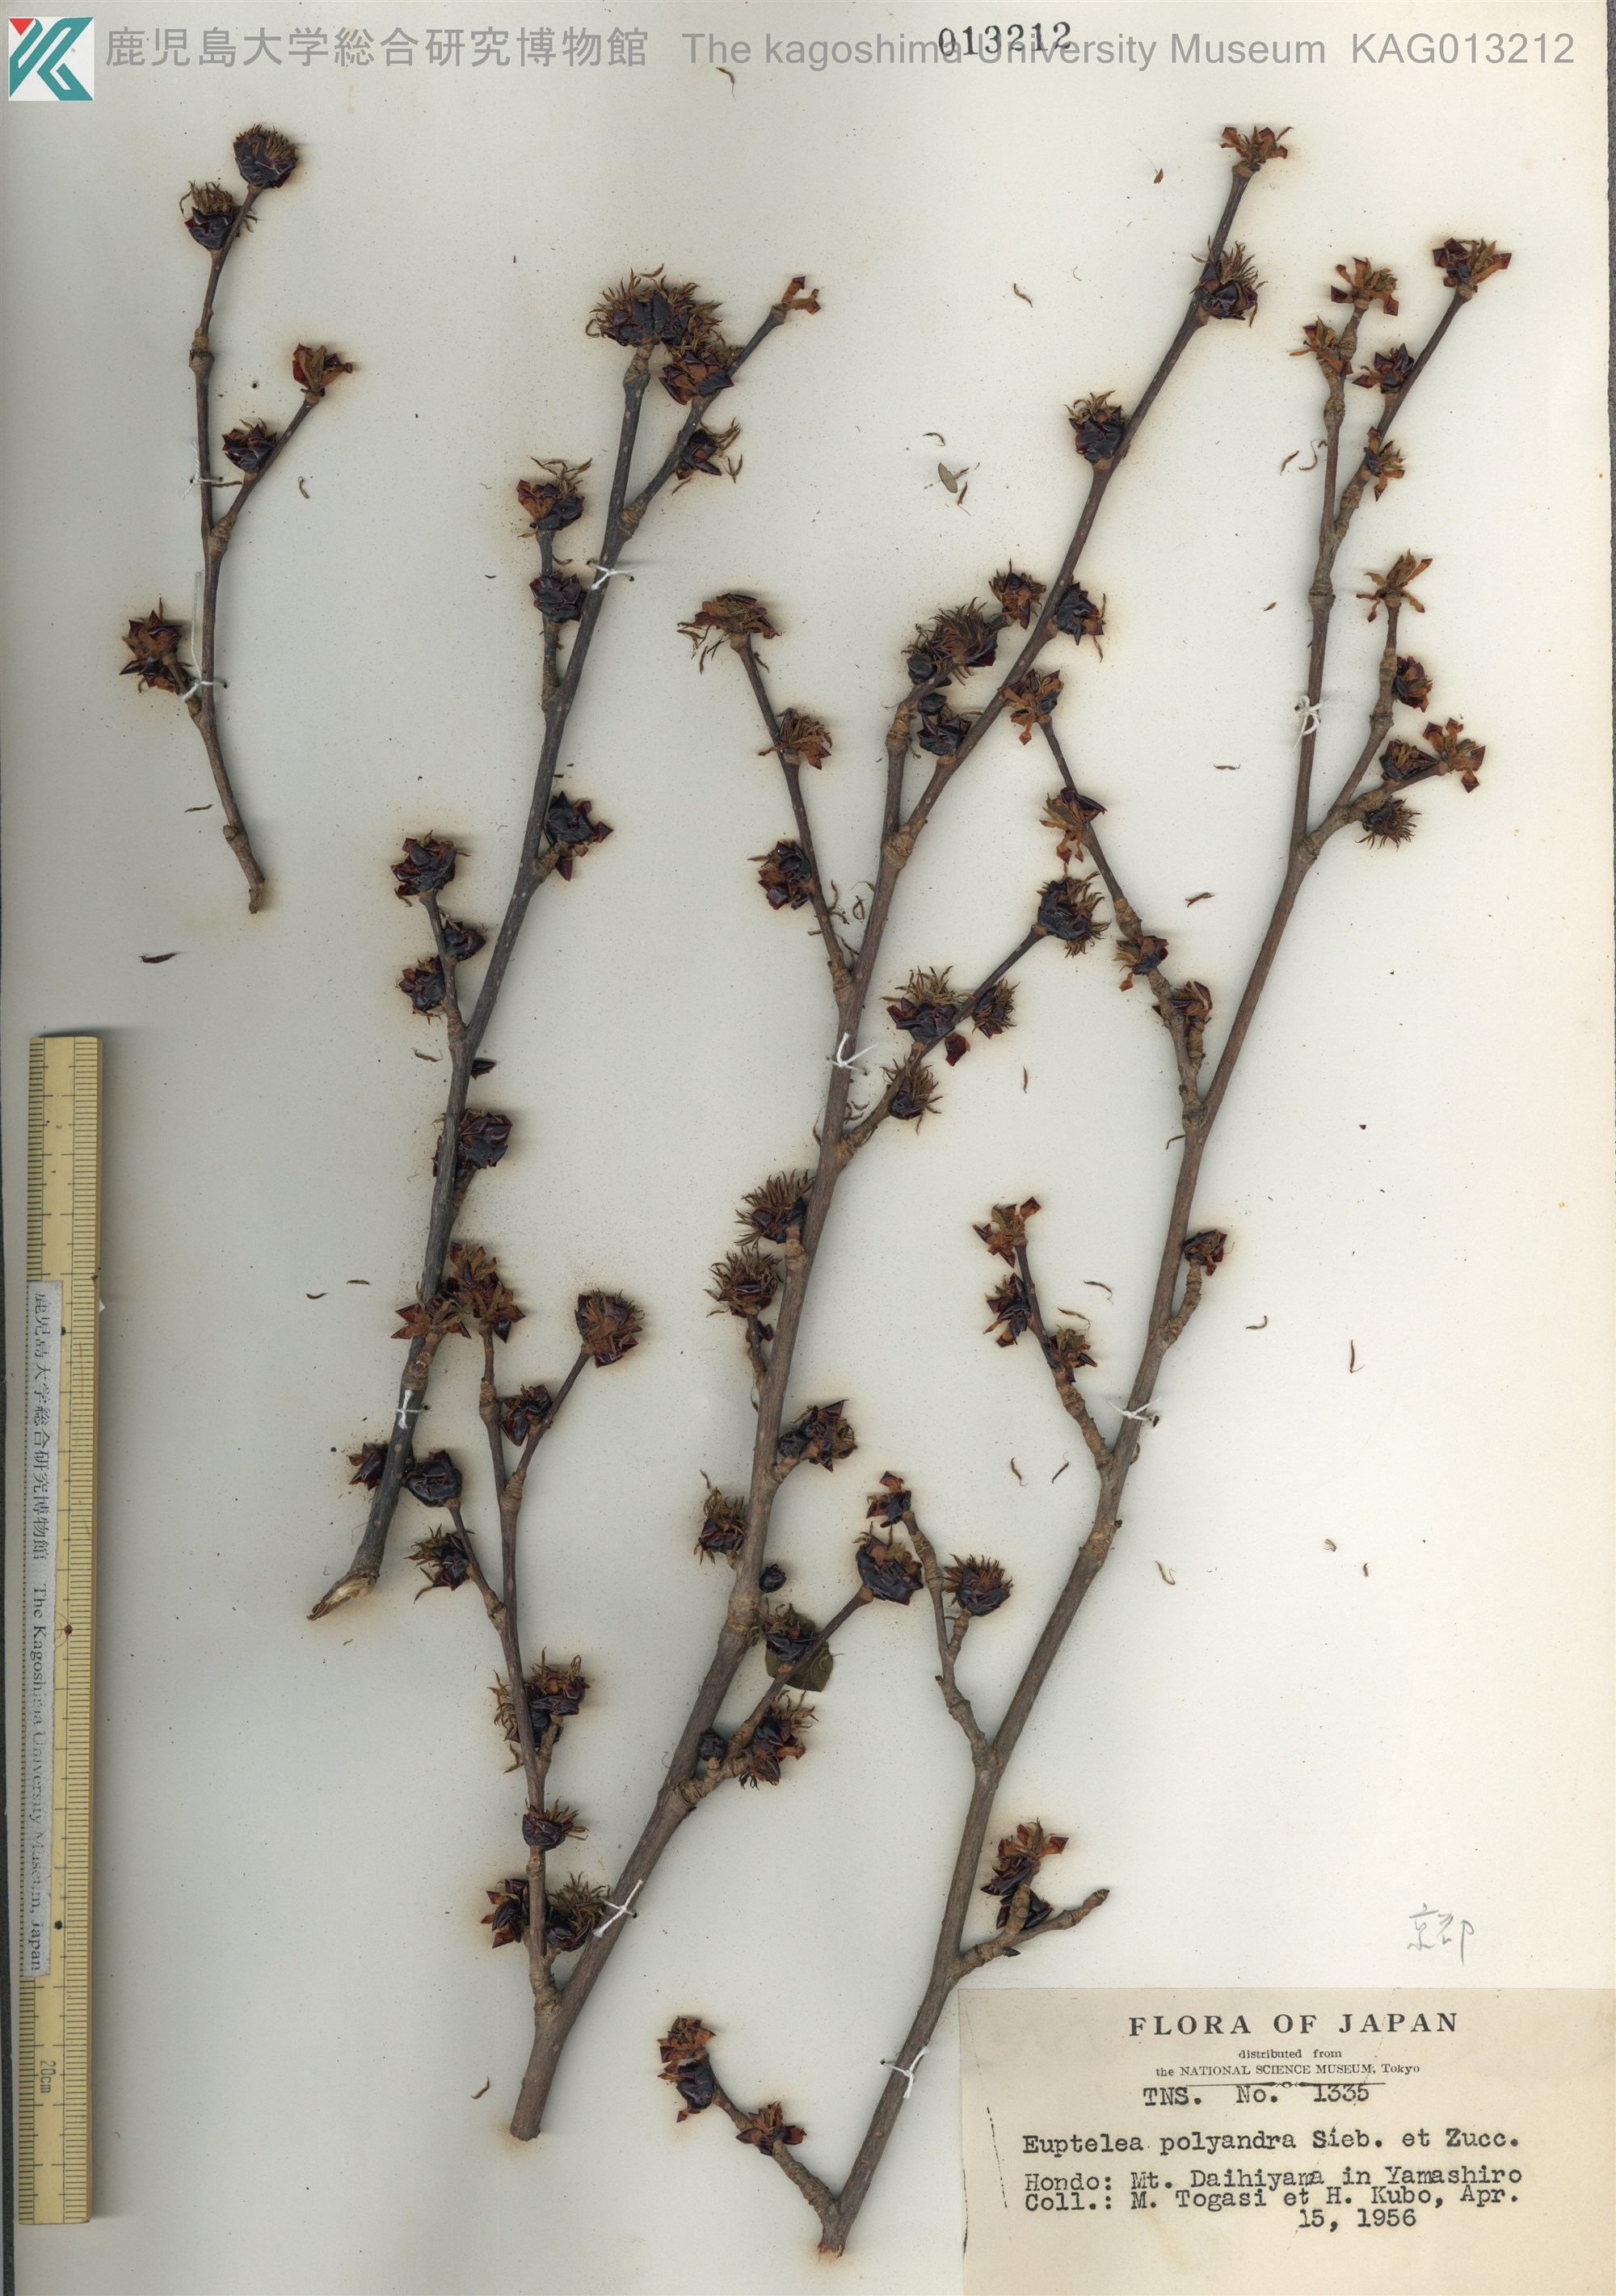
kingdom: Plantae
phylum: Tracheophyta
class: Magnoliopsida
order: Ranunculales
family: Eupteleaceae
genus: Euptelea
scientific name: Euptelea polyandra
